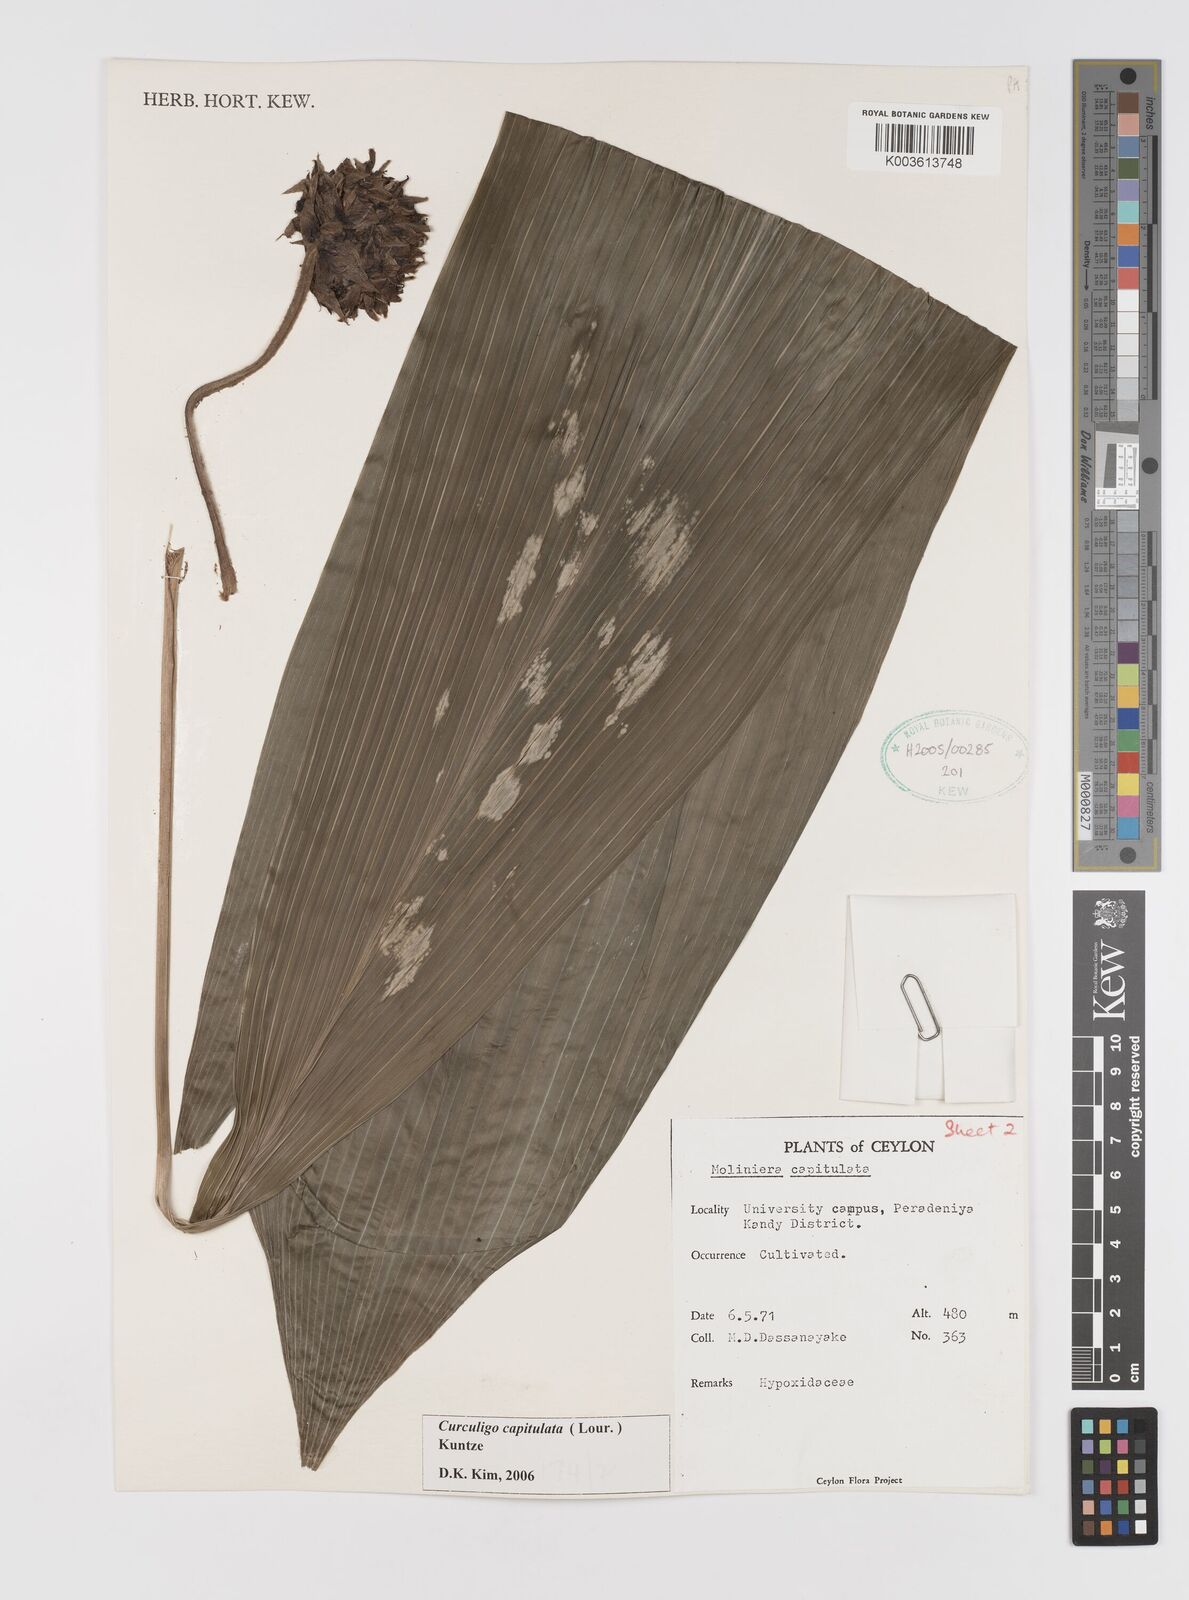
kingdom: Plantae
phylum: Tracheophyta
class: Liliopsida
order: Asparagales
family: Hypoxidaceae
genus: Curculigo
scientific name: Curculigo capitulata
